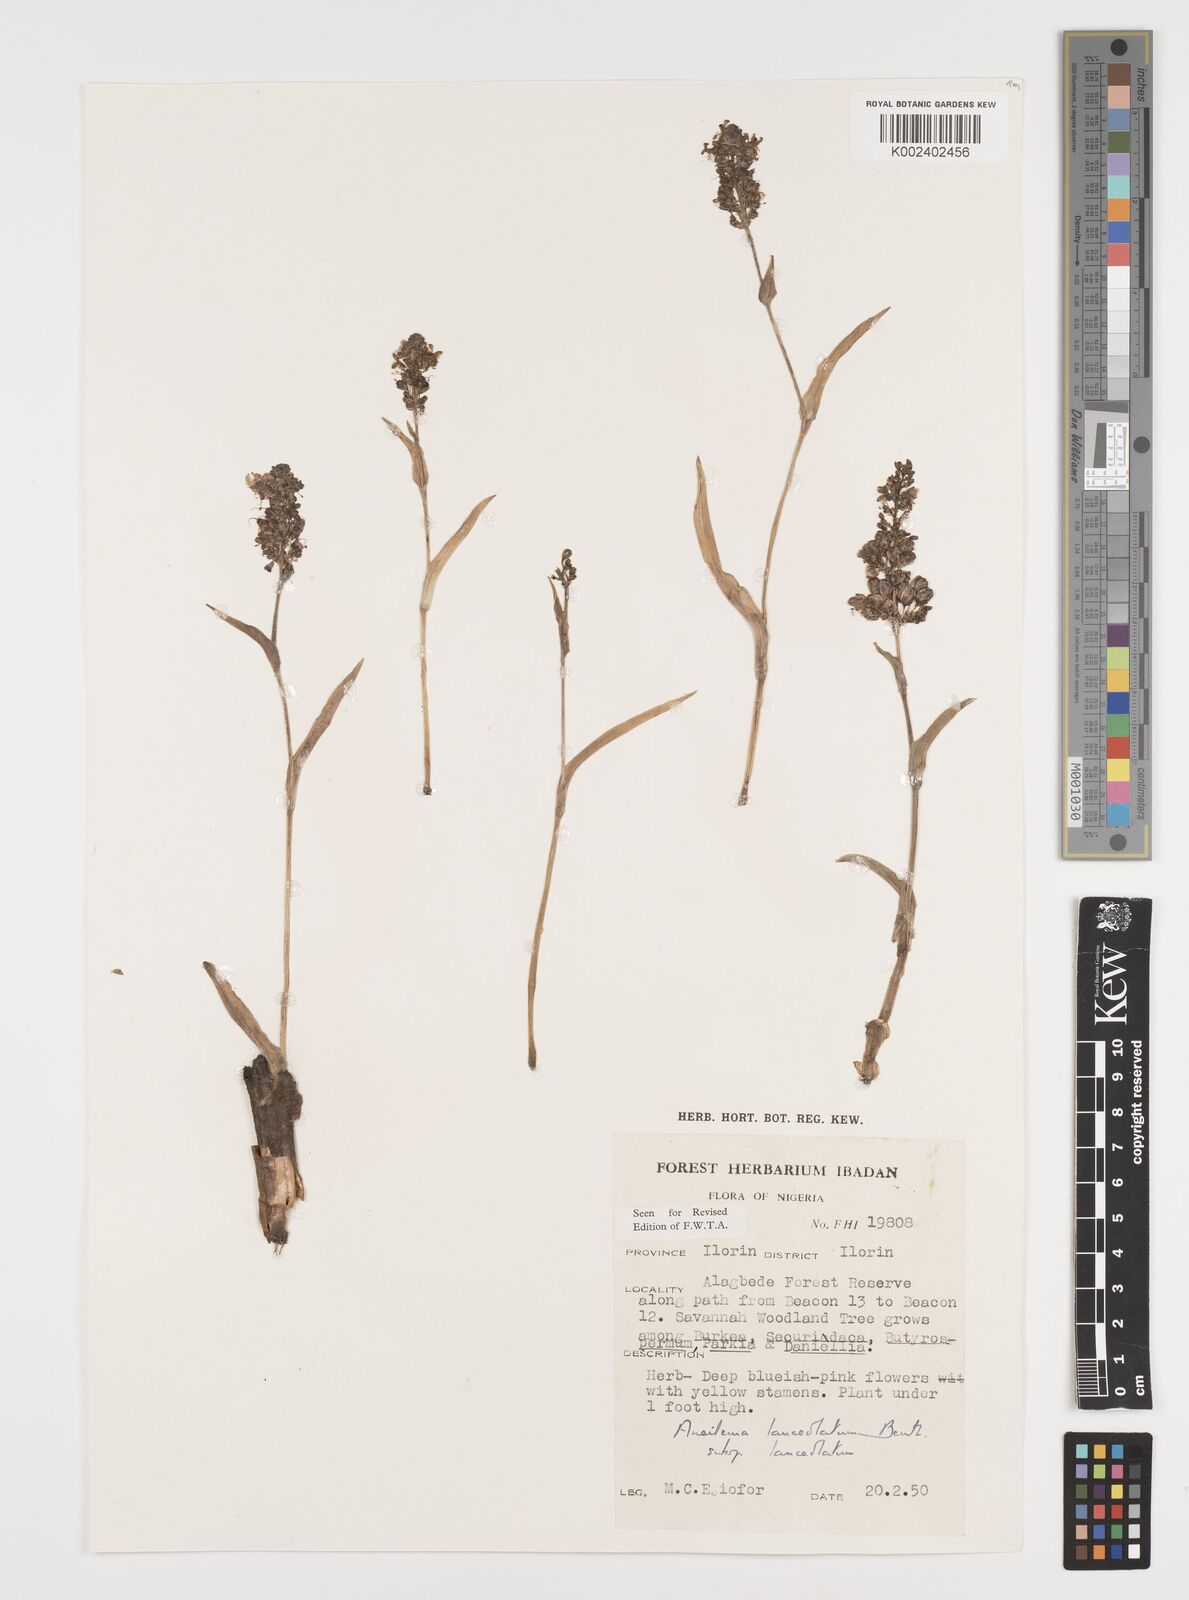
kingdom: Plantae
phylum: Tracheophyta
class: Liliopsida
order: Commelinales
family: Commelinaceae
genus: Aneilema
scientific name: Aneilema lanceolatum
